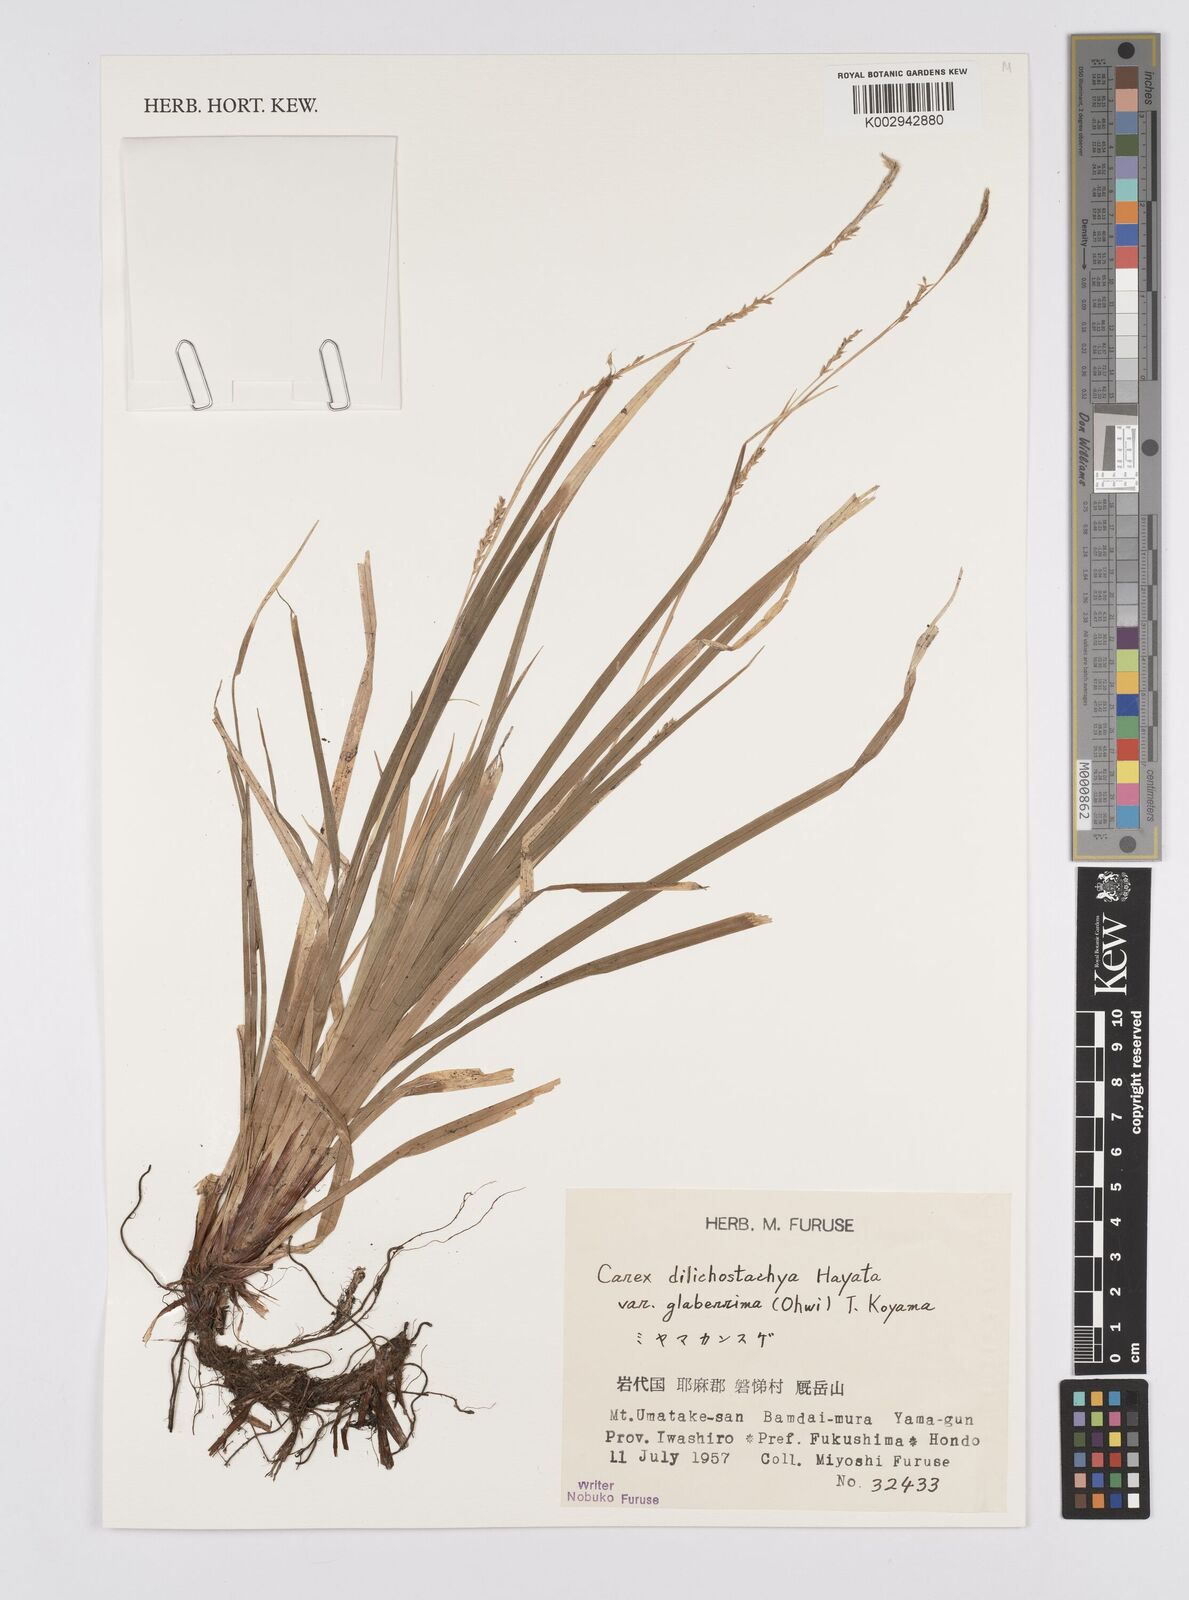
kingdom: Plantae
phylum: Tracheophyta
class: Liliopsida
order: Poales
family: Cyperaceae
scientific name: Cyperaceae
